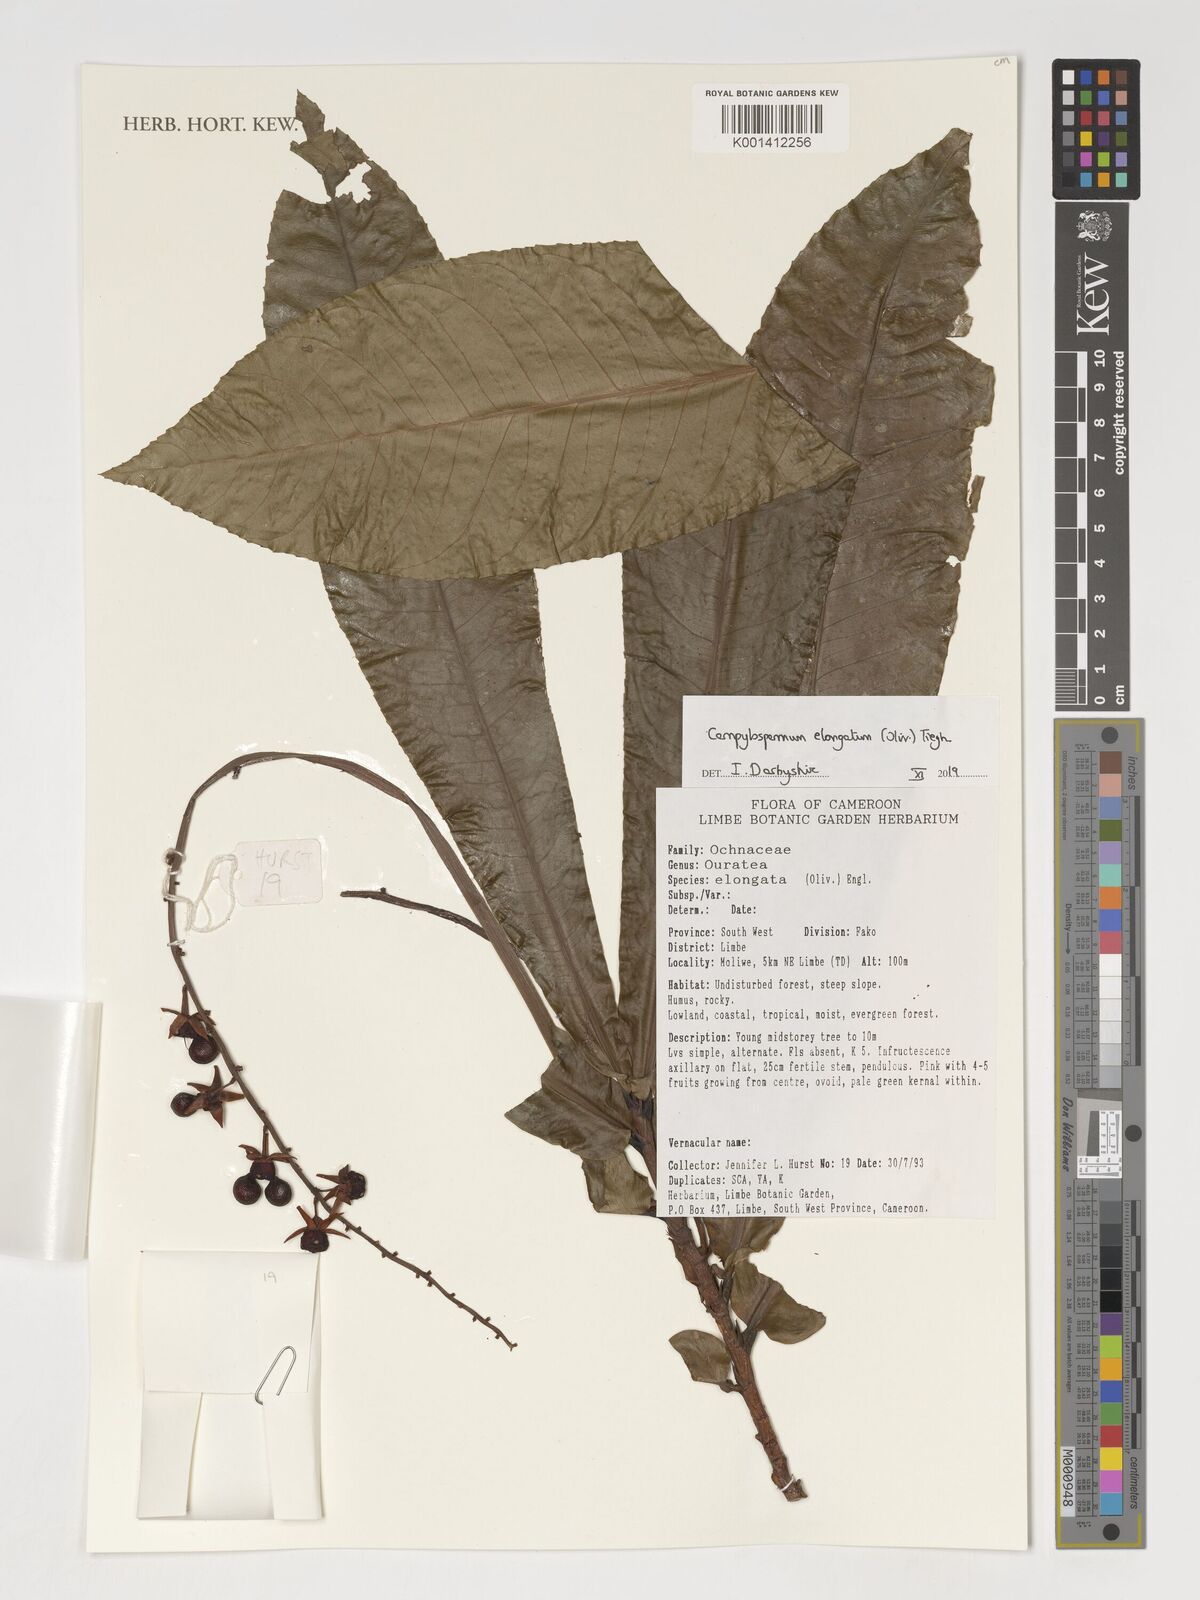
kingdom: Plantae
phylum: Tracheophyta
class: Magnoliopsida
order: Malpighiales
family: Ochnaceae
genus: Gomphia
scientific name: Gomphia elongata
